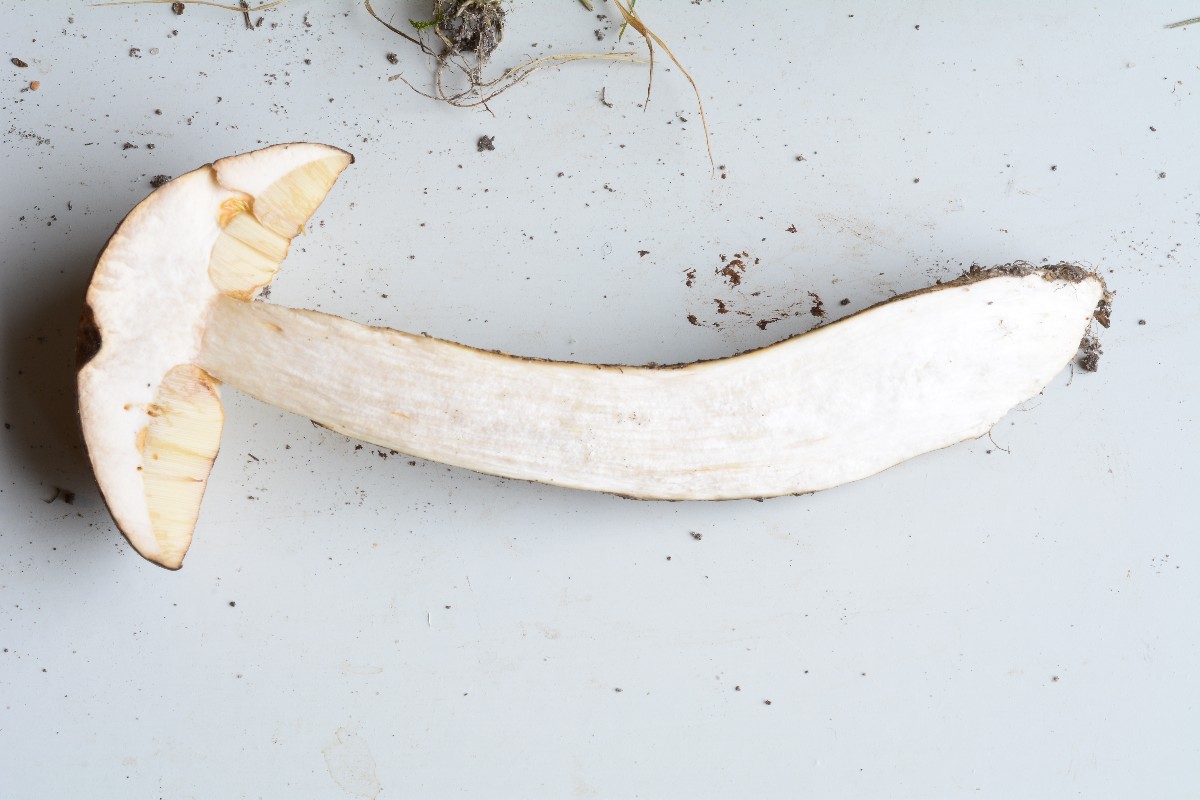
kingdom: Fungi
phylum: Basidiomycota
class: Agaricomycetes
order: Boletales
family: Boletaceae
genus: Leccinum
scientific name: Leccinum melaneum
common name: mørk skælrørhat
